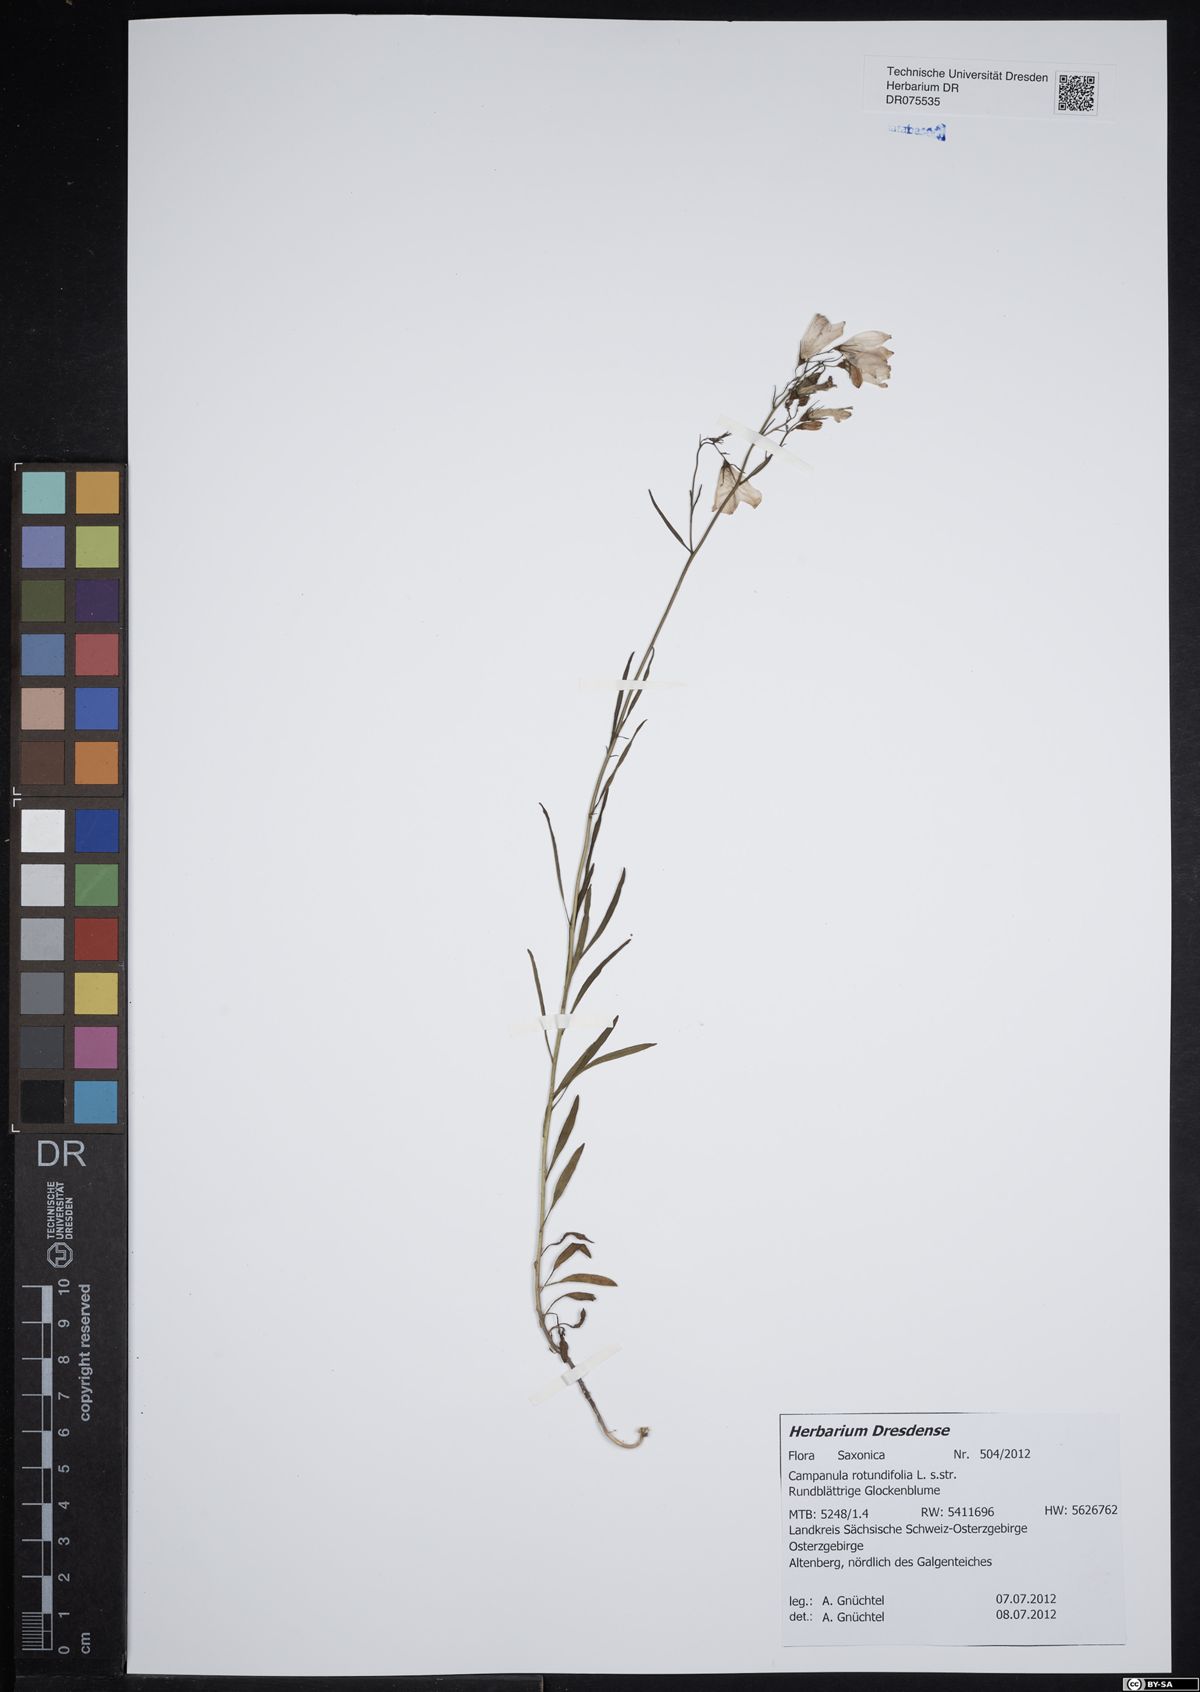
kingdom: Plantae
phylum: Tracheophyta
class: Magnoliopsida
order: Asterales
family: Campanulaceae
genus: Campanula
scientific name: Campanula rotundifolia
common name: Harebell
